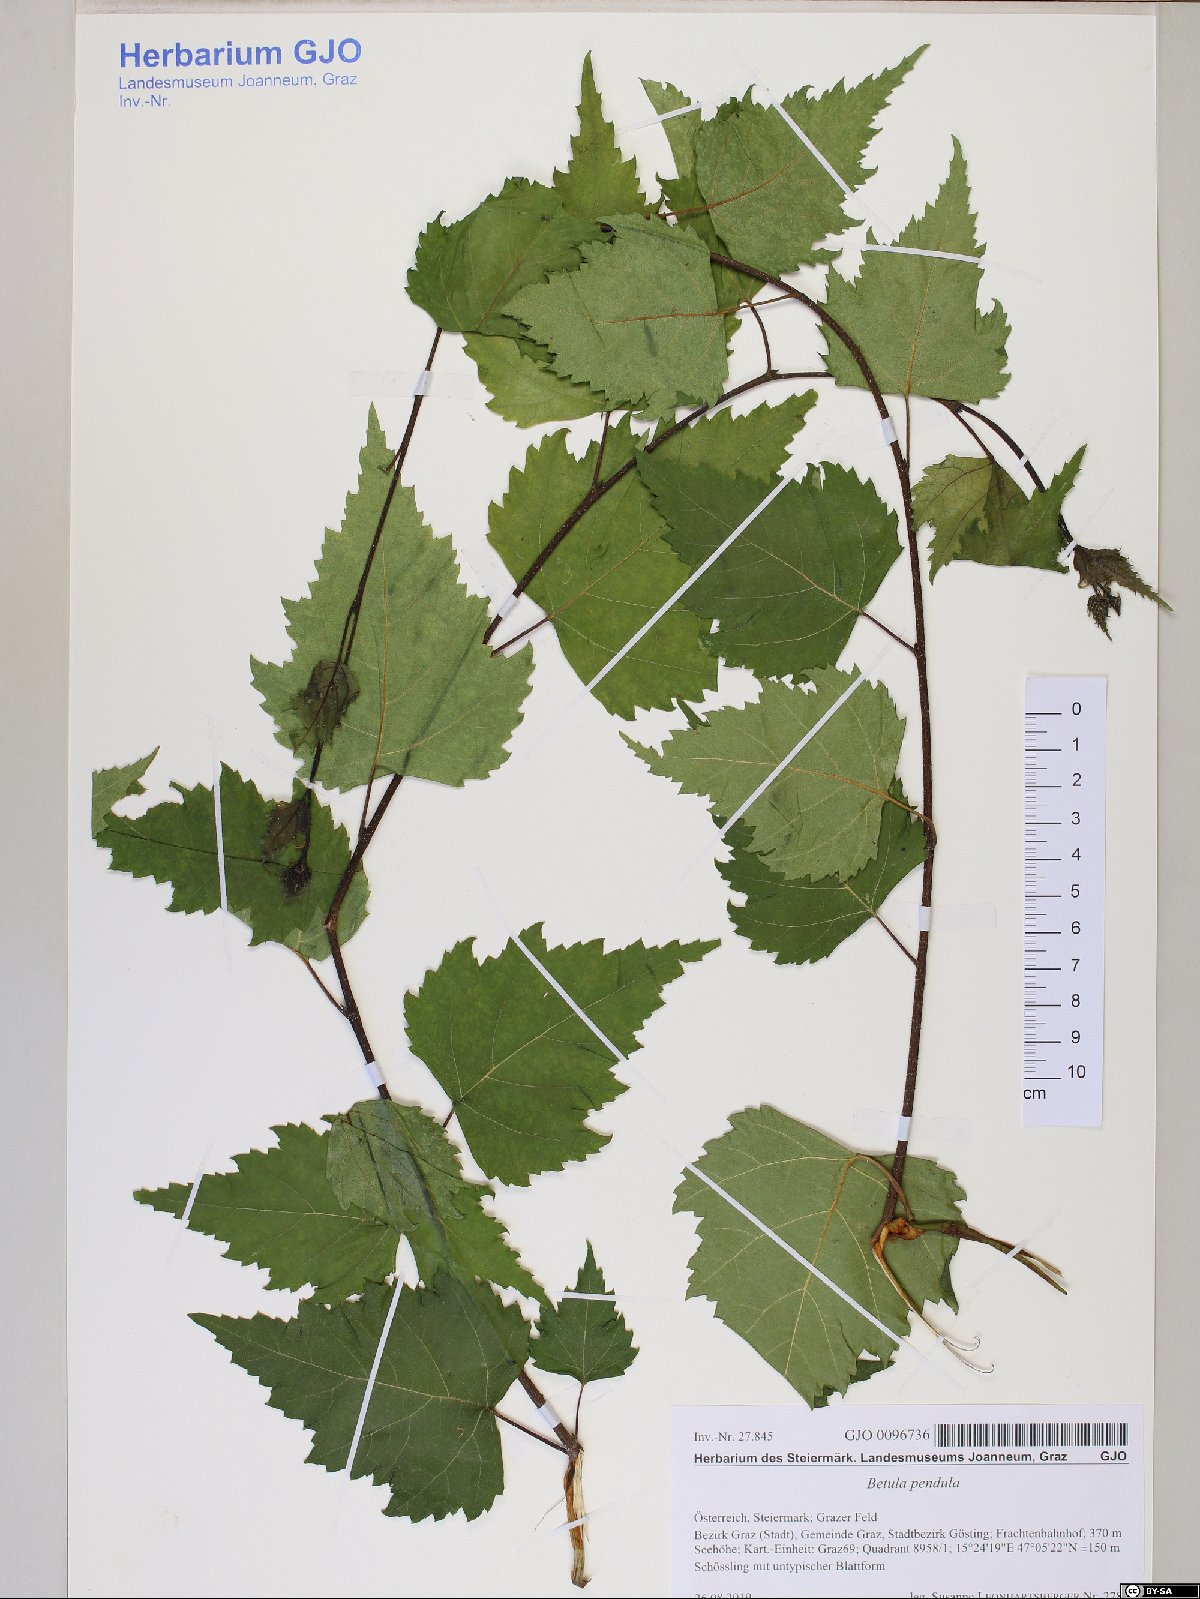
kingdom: Plantae
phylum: Tracheophyta
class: Magnoliopsida
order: Fagales
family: Betulaceae
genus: Betula
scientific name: Betula pendula
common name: Silver birch
